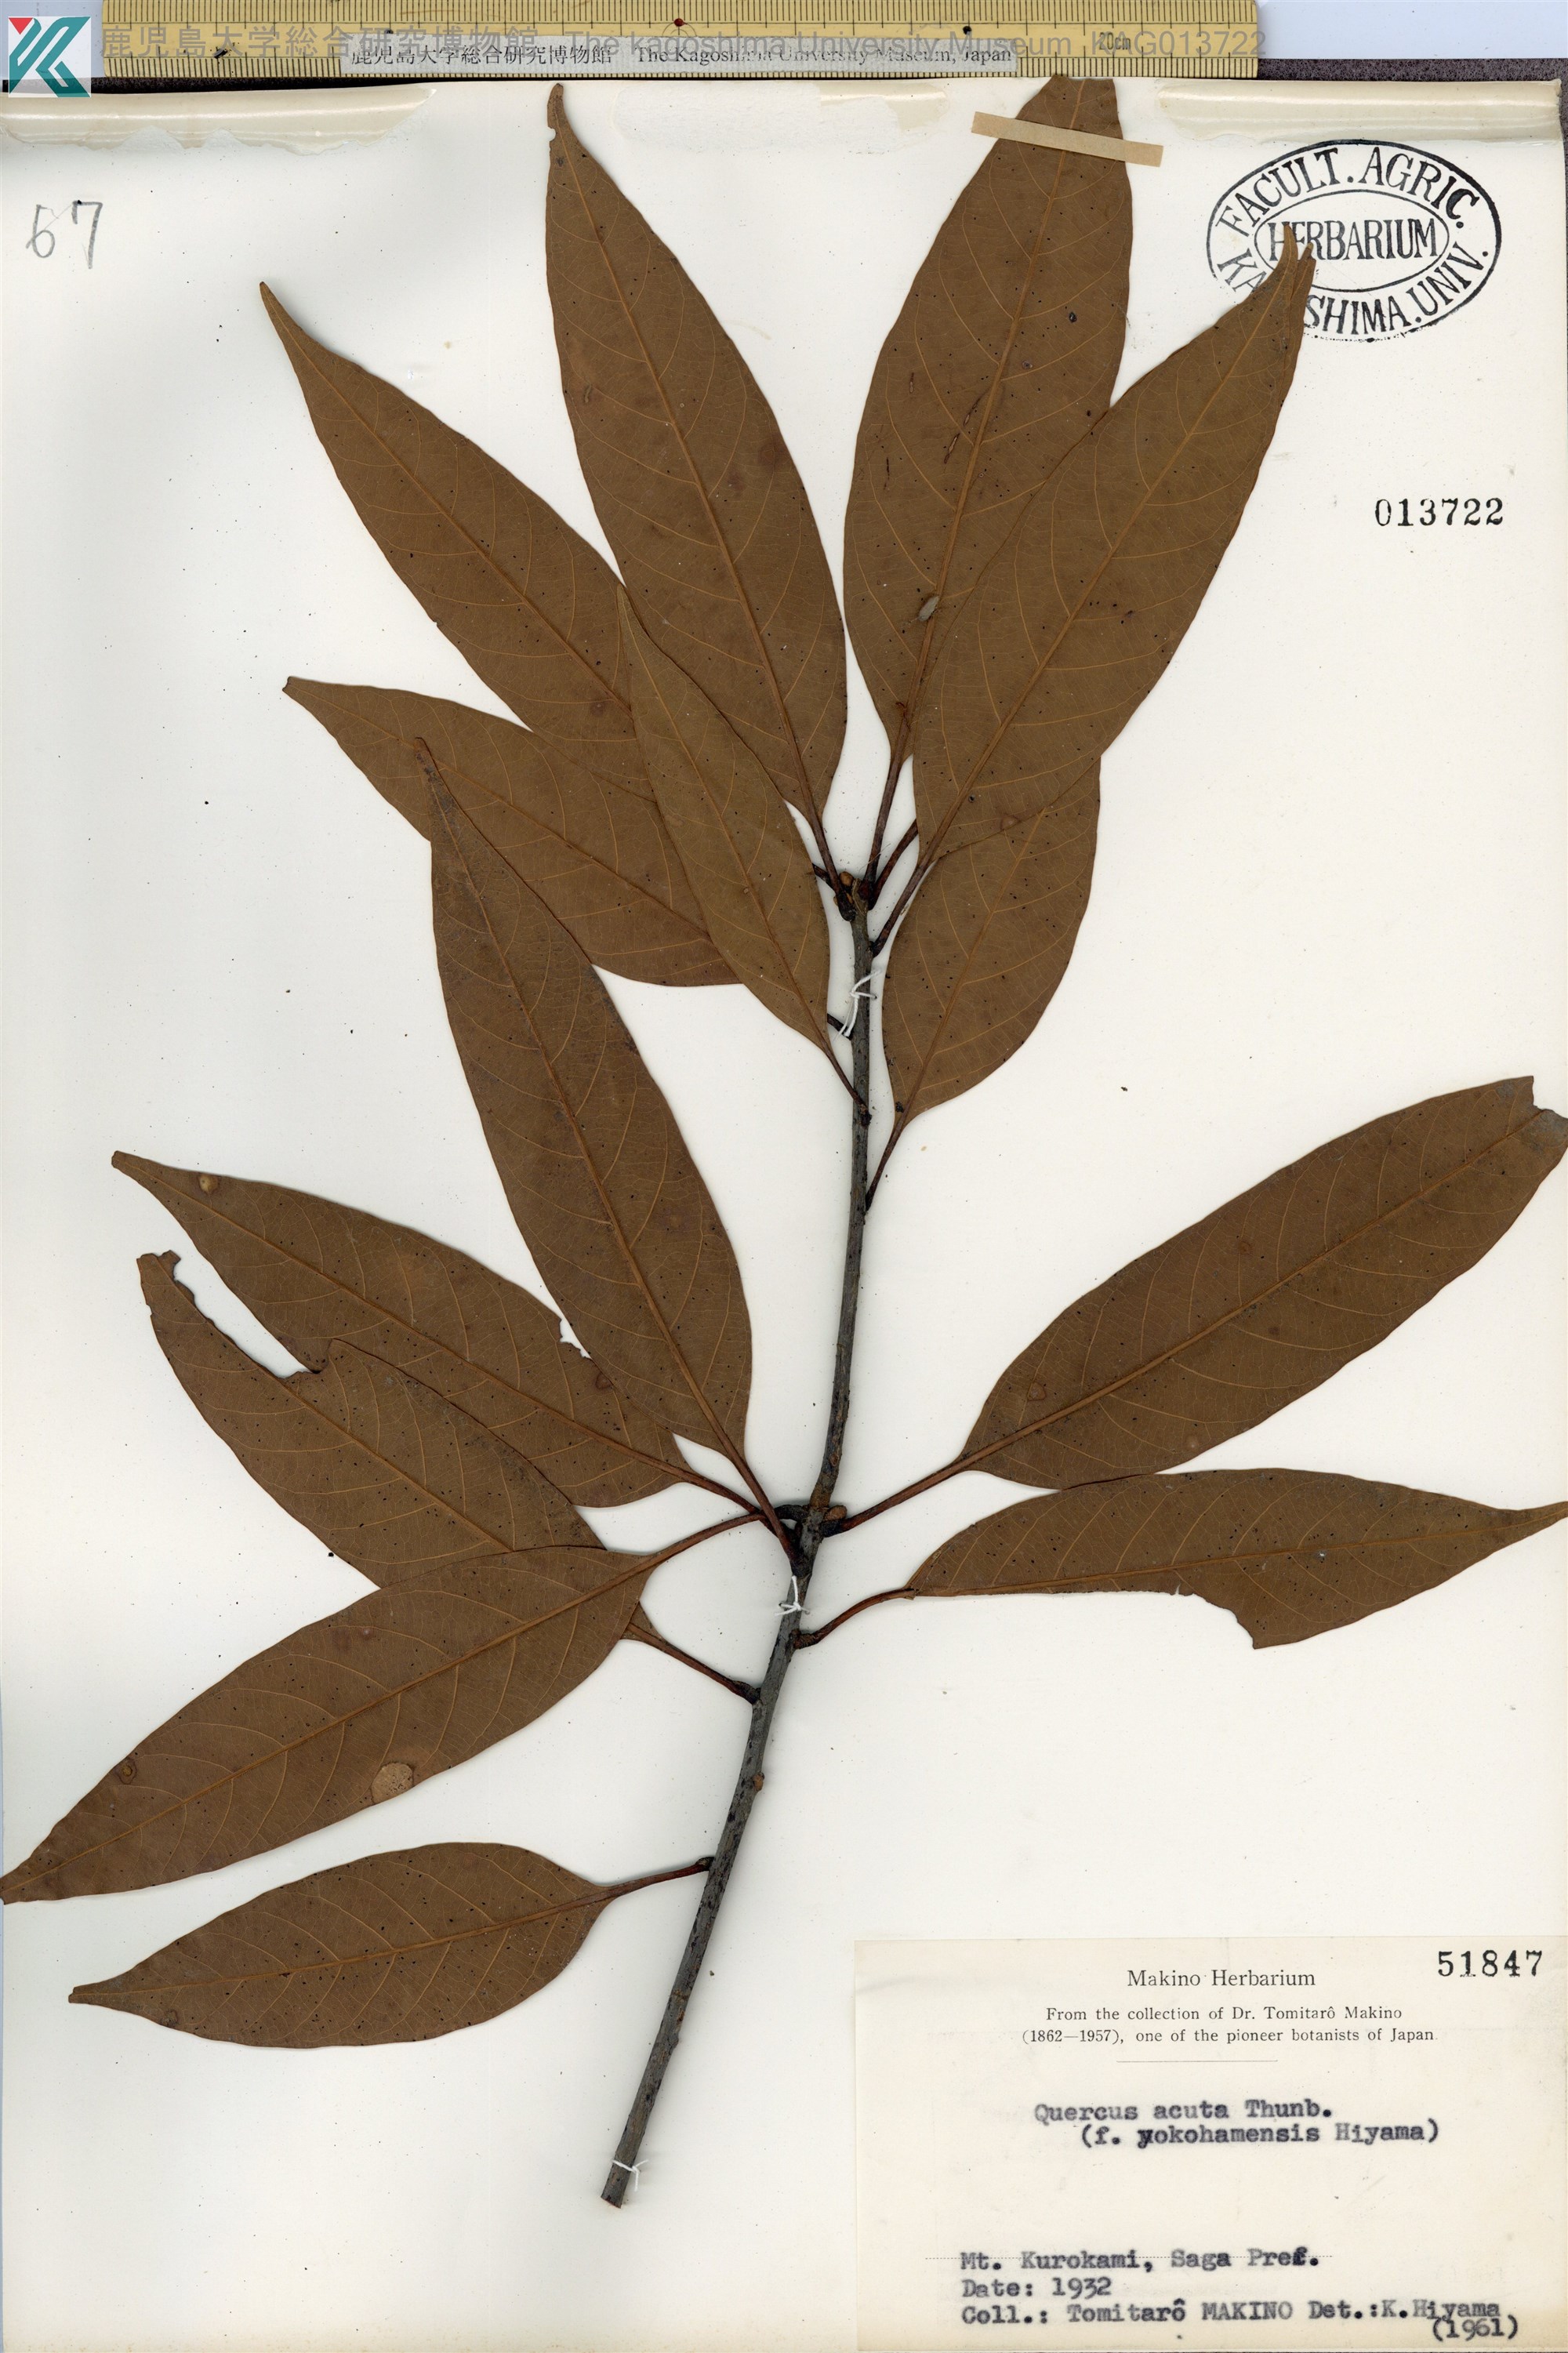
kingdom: Plantae
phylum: Tracheophyta
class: Magnoliopsida
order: Fagales
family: Fagaceae
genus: Quercus
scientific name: Quercus acuta
